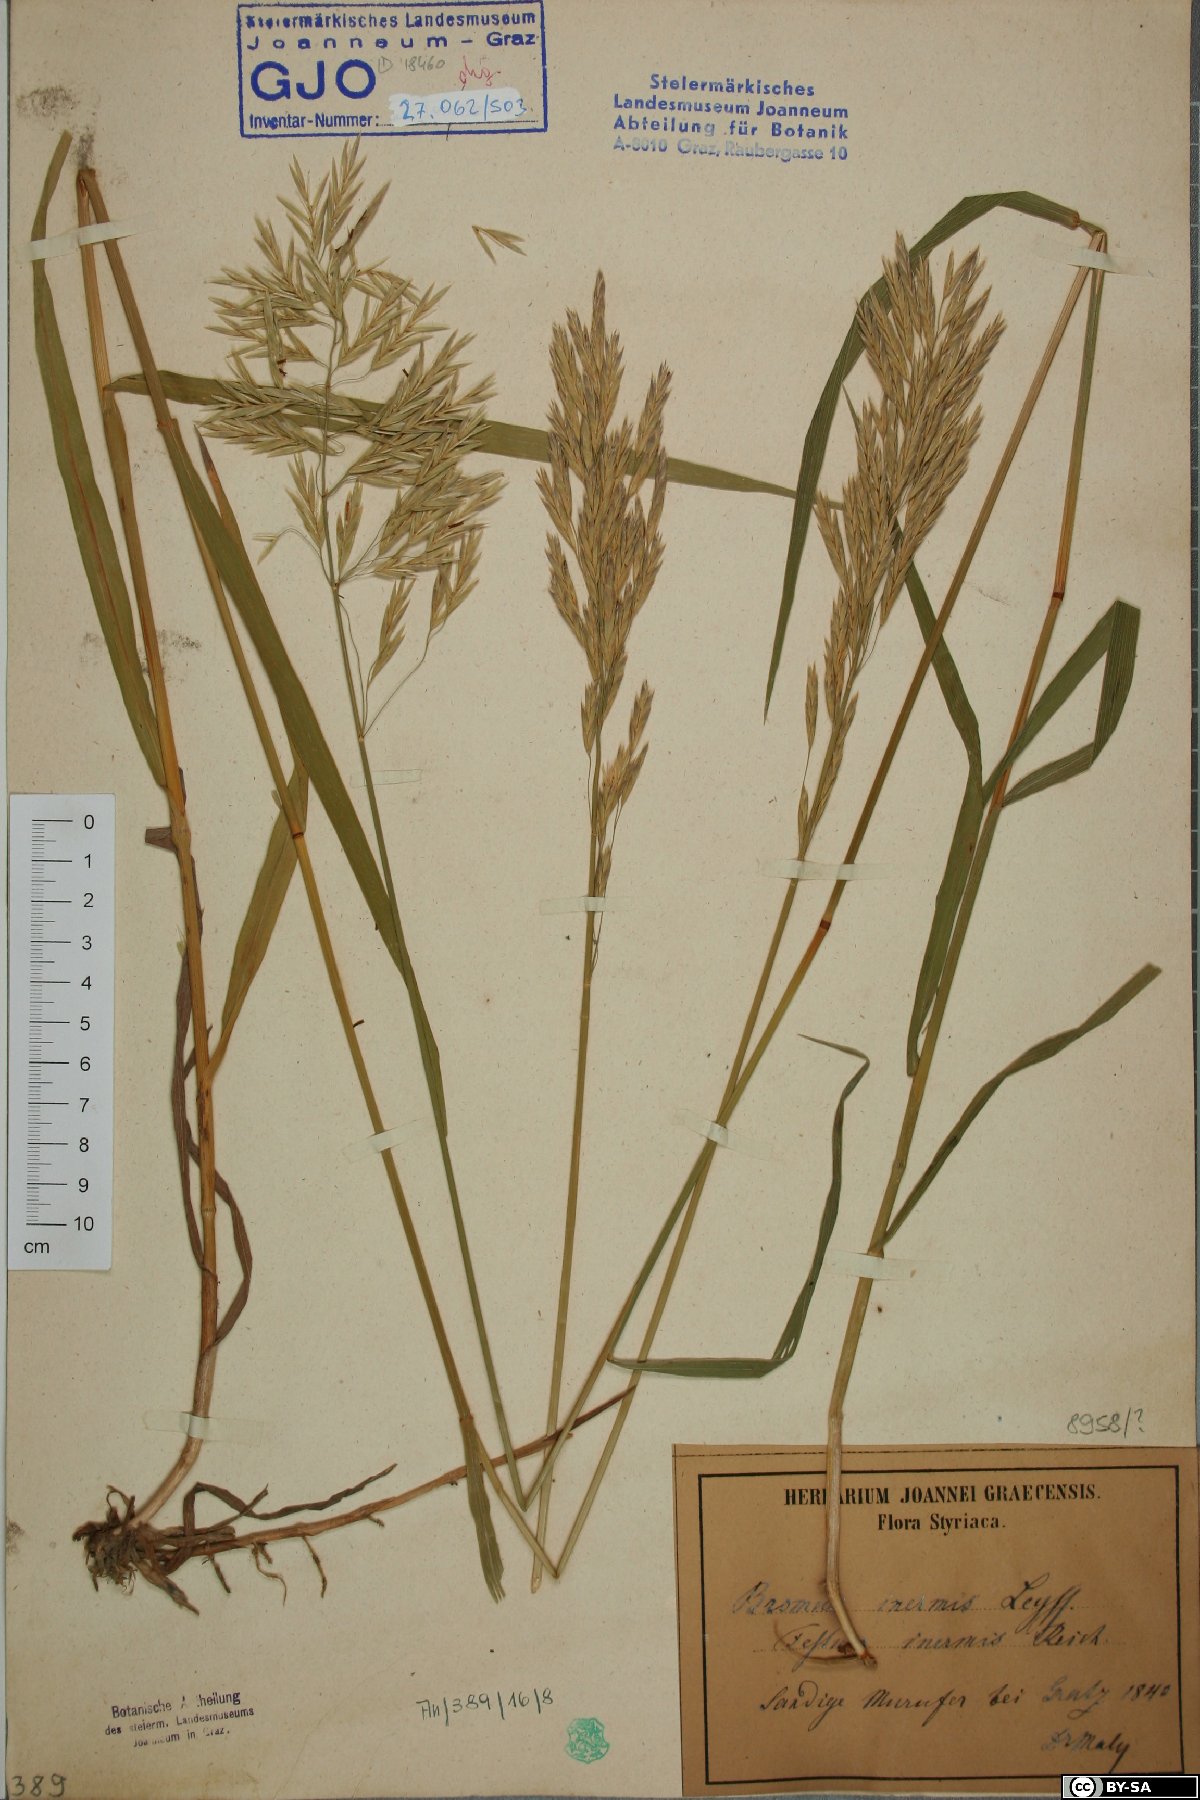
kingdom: Plantae
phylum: Tracheophyta
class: Liliopsida
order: Poales
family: Poaceae
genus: Bromus
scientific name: Bromus inermis
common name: Smooth brome
